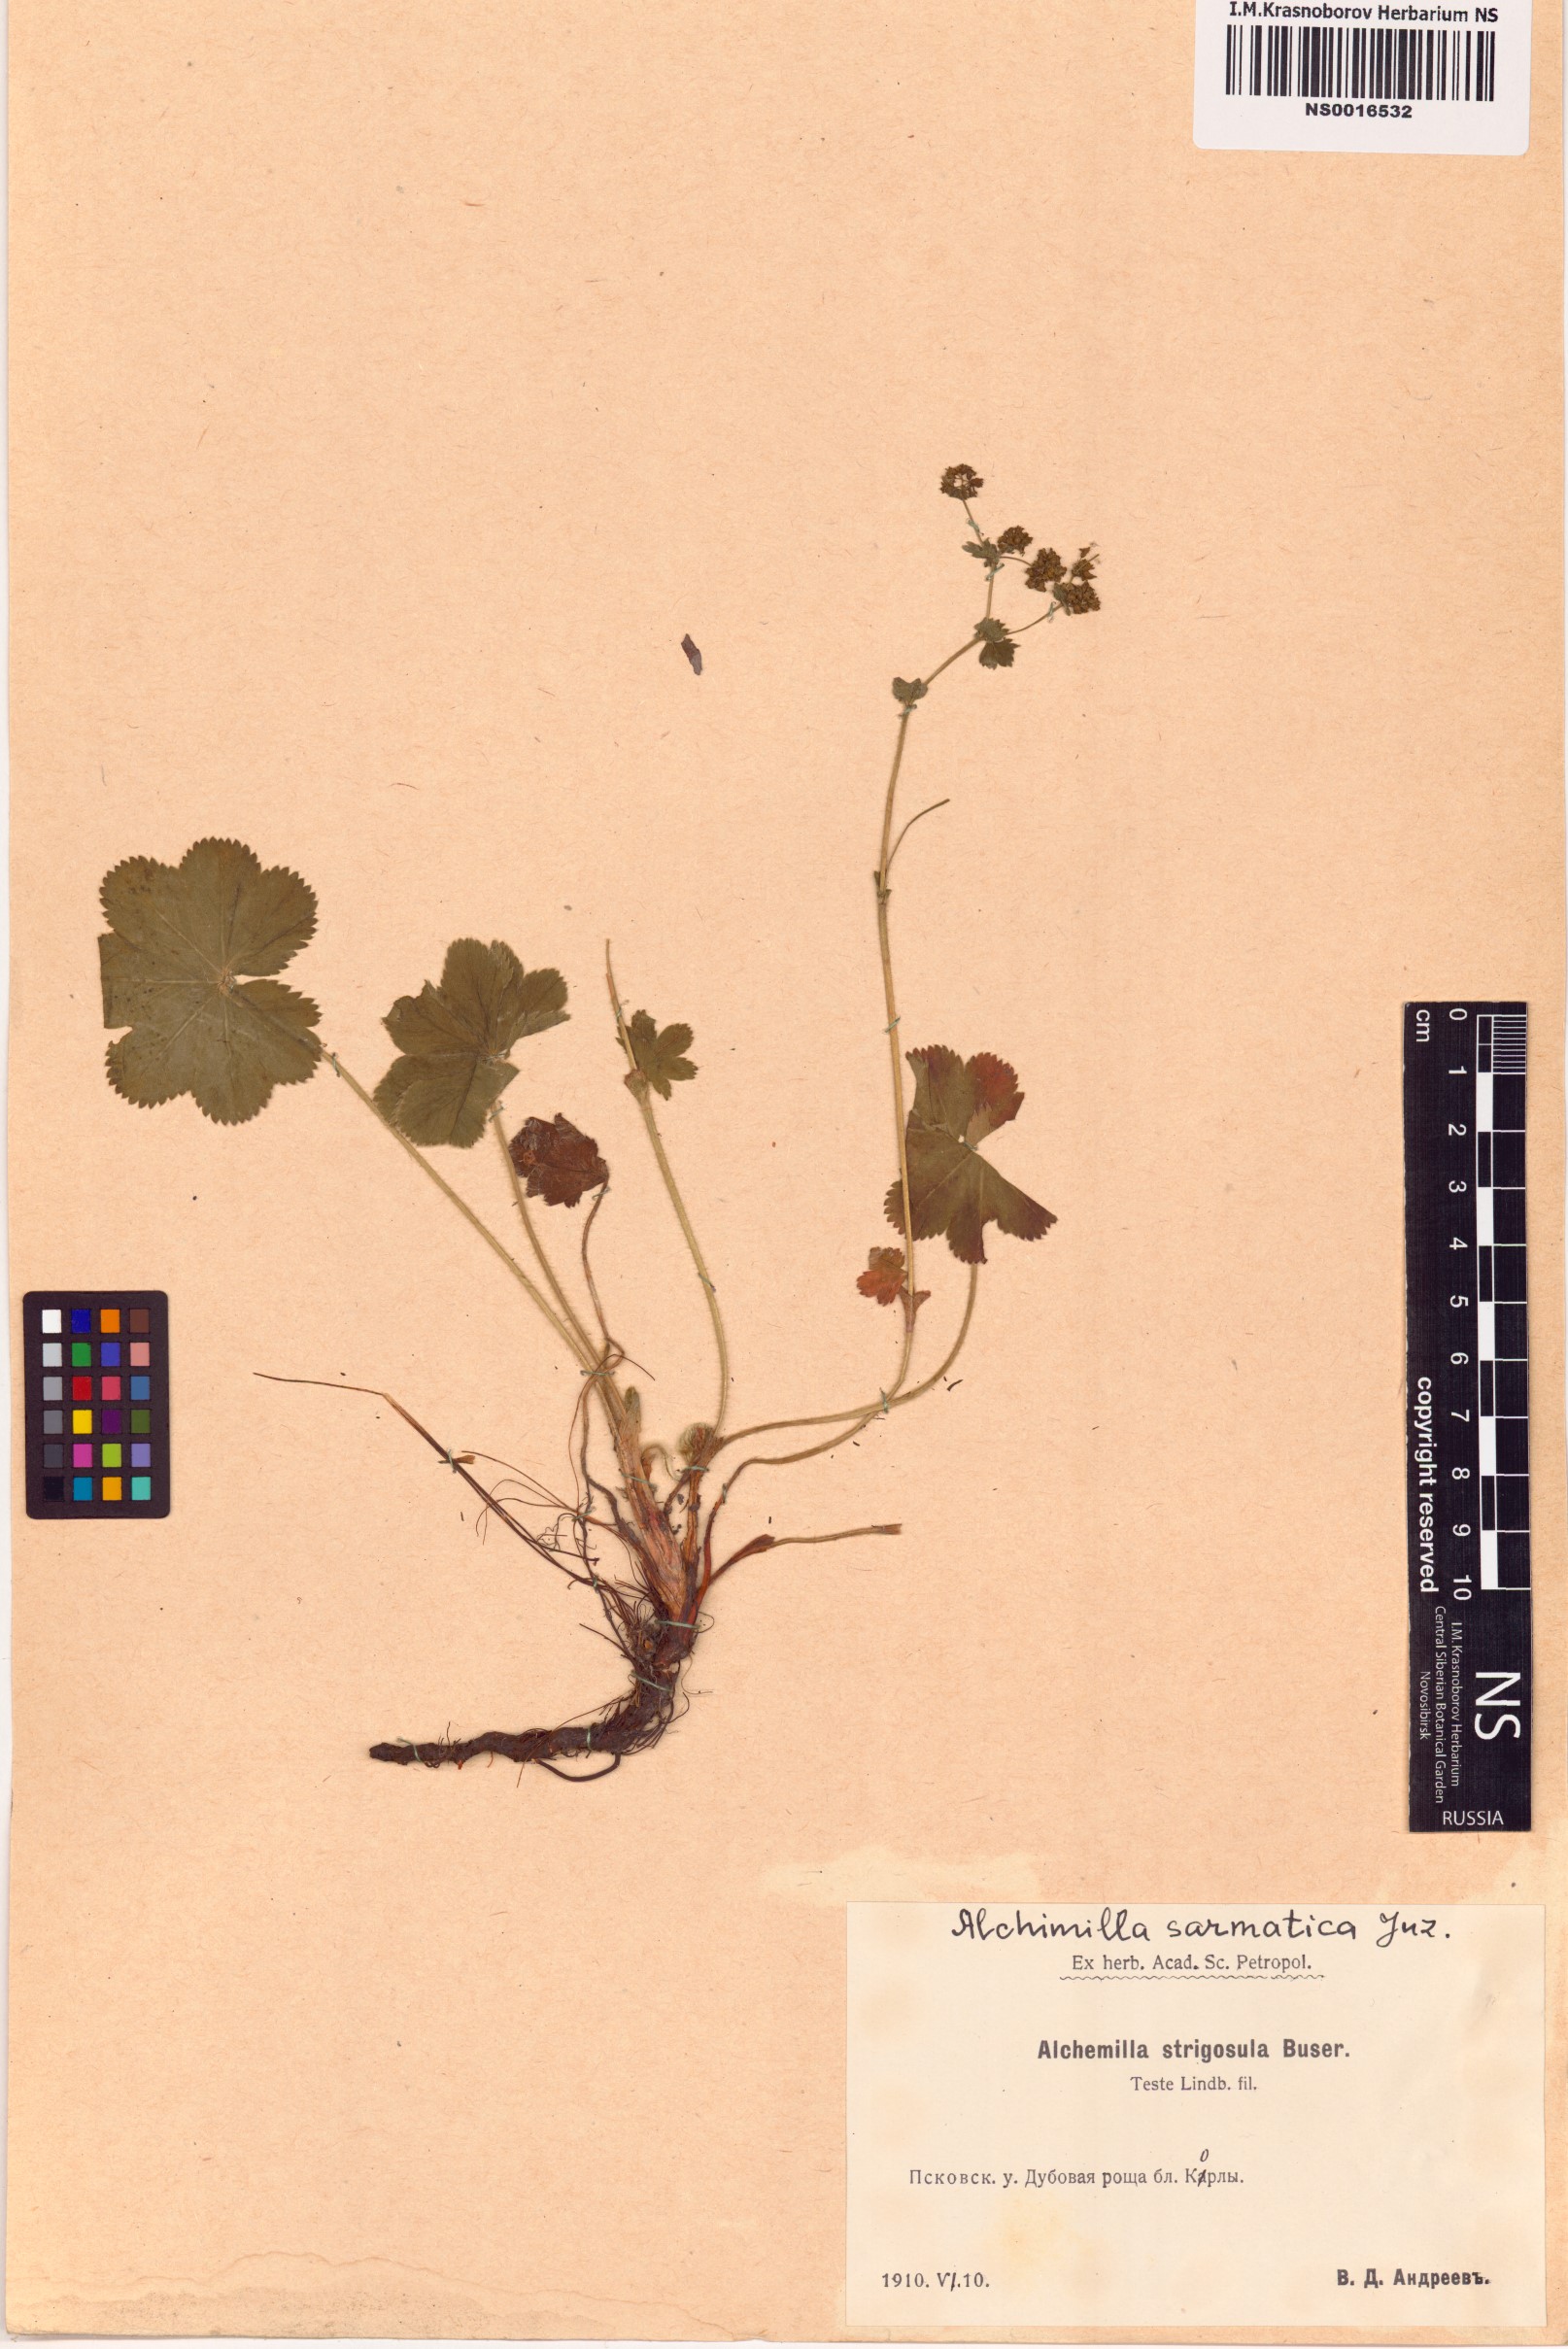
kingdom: Plantae
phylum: Tracheophyta
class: Magnoliopsida
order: Rosales
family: Rosaceae
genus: Alchemilla
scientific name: Alchemilla sarmatica
